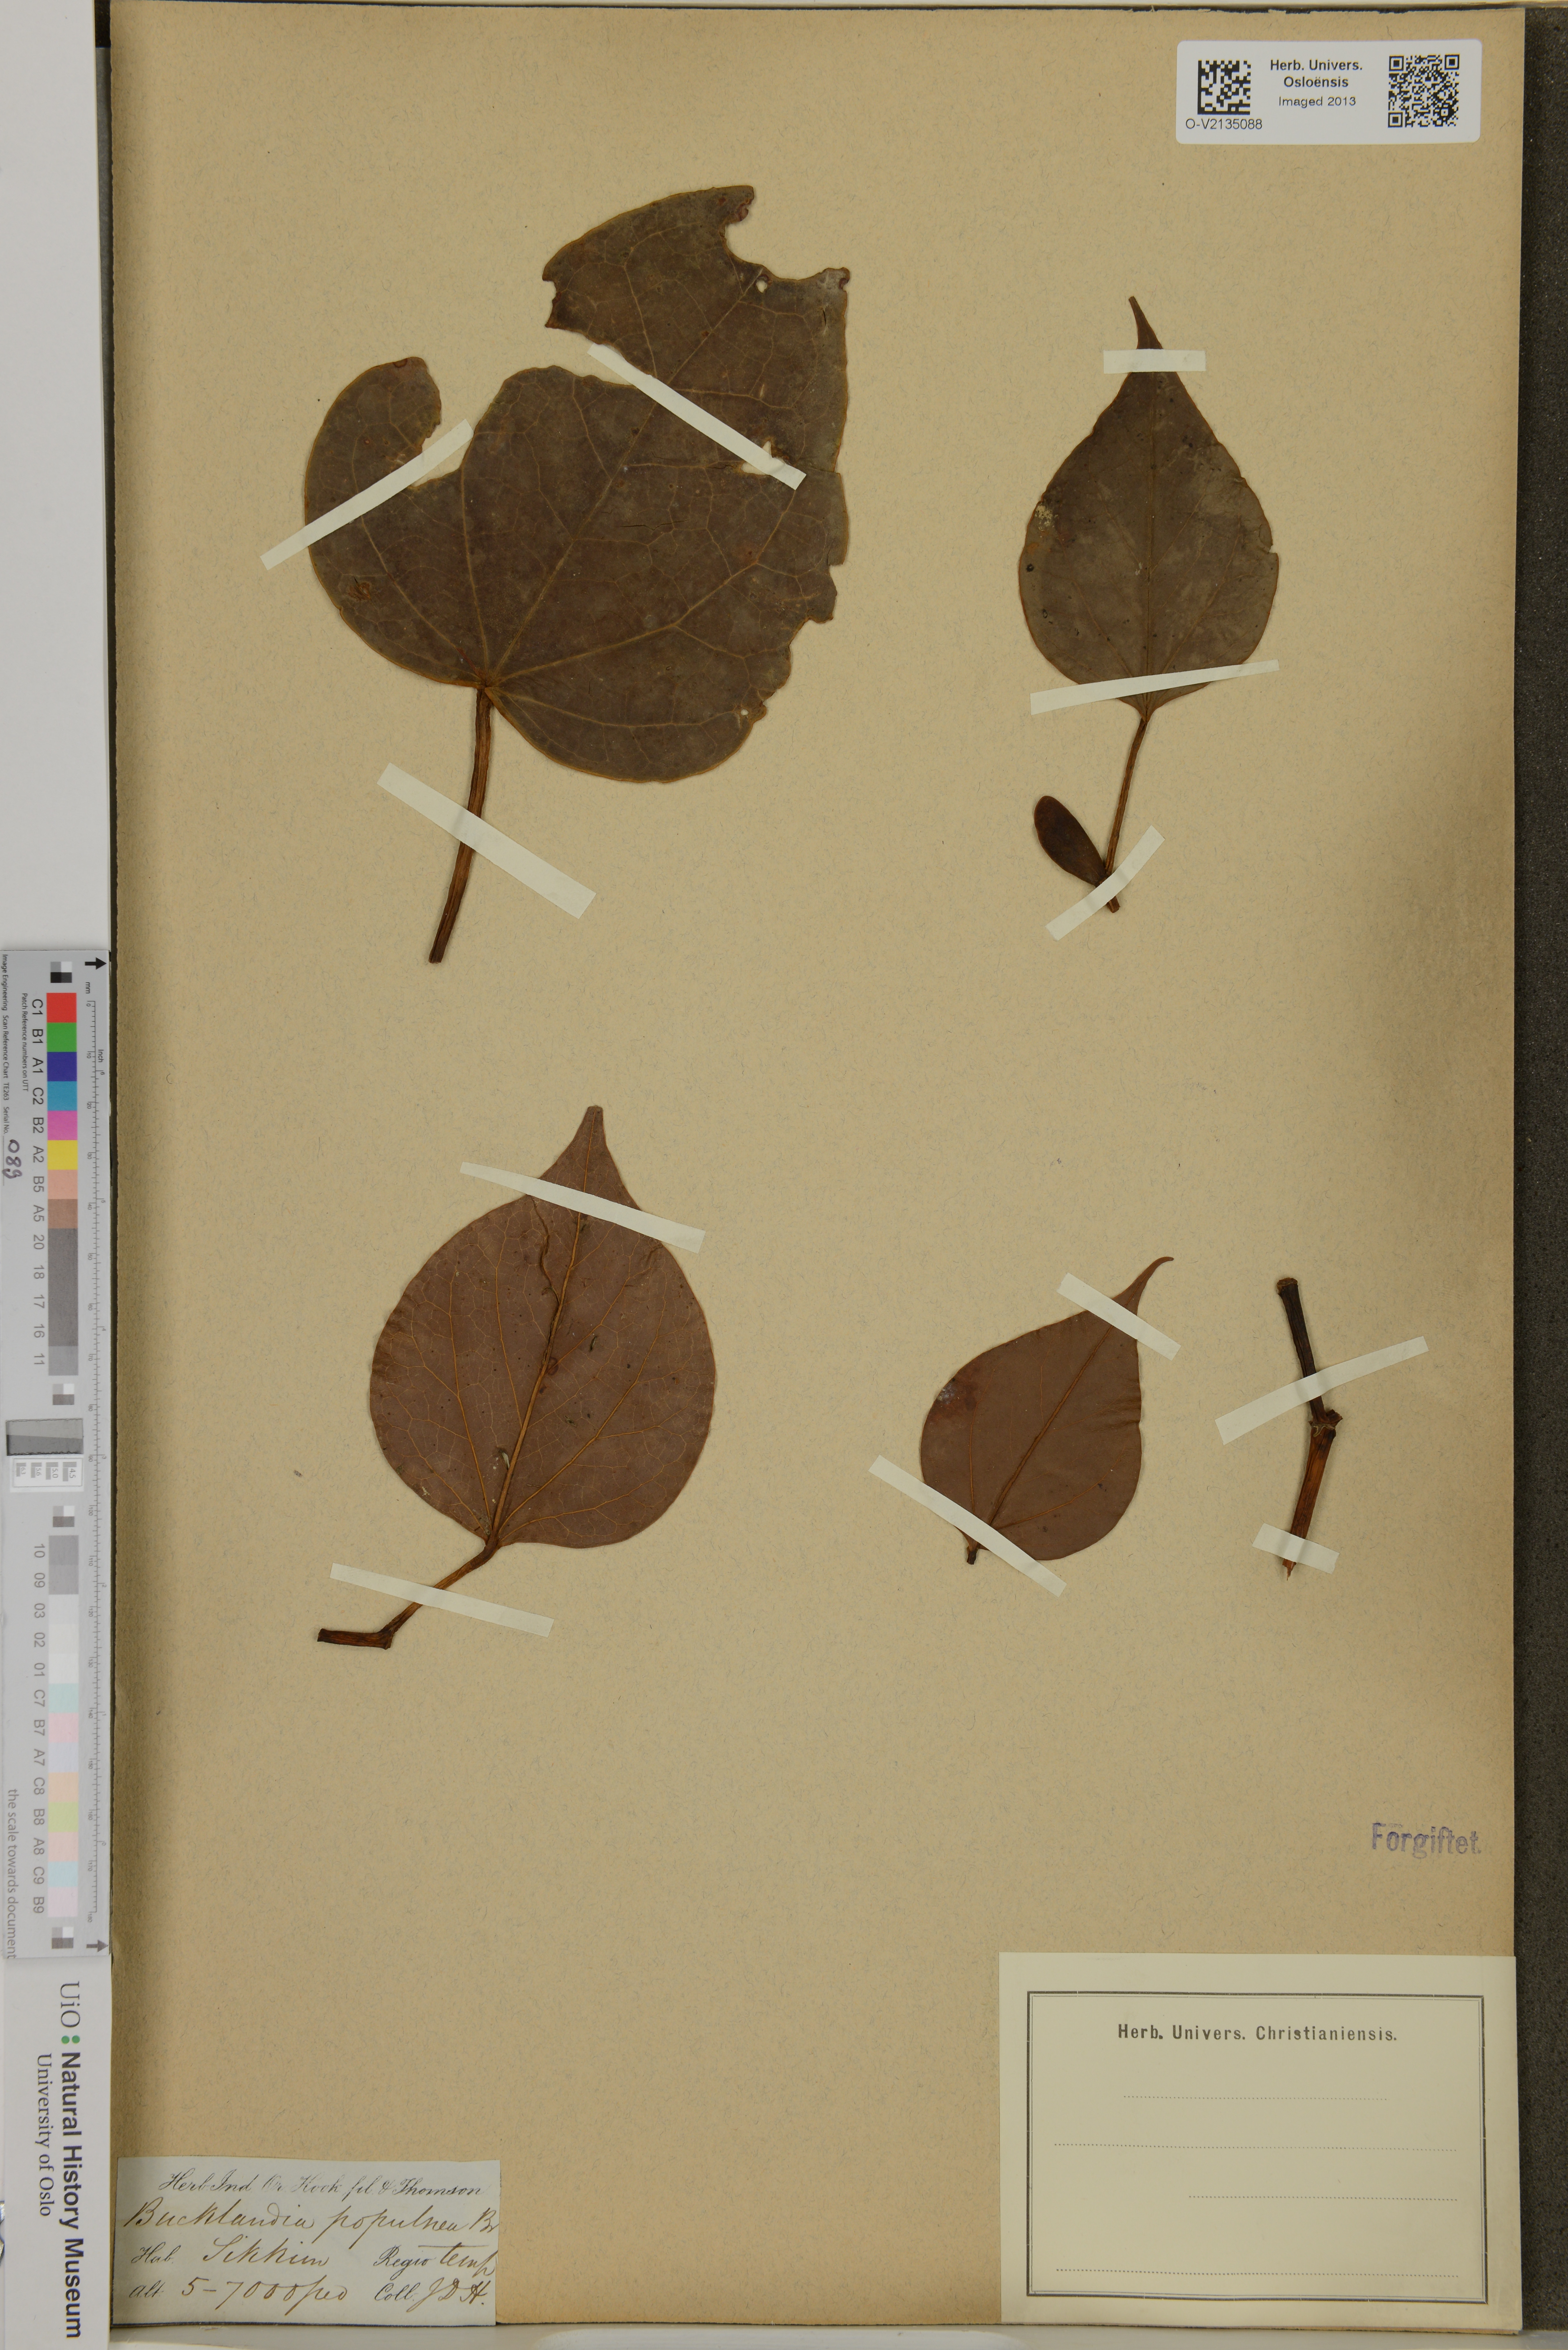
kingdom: Plantae
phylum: Tracheophyta
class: Magnoliopsida
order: Saxifragales
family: Hamamelidaceae
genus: Exbucklandia
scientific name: Exbucklandia populnea
